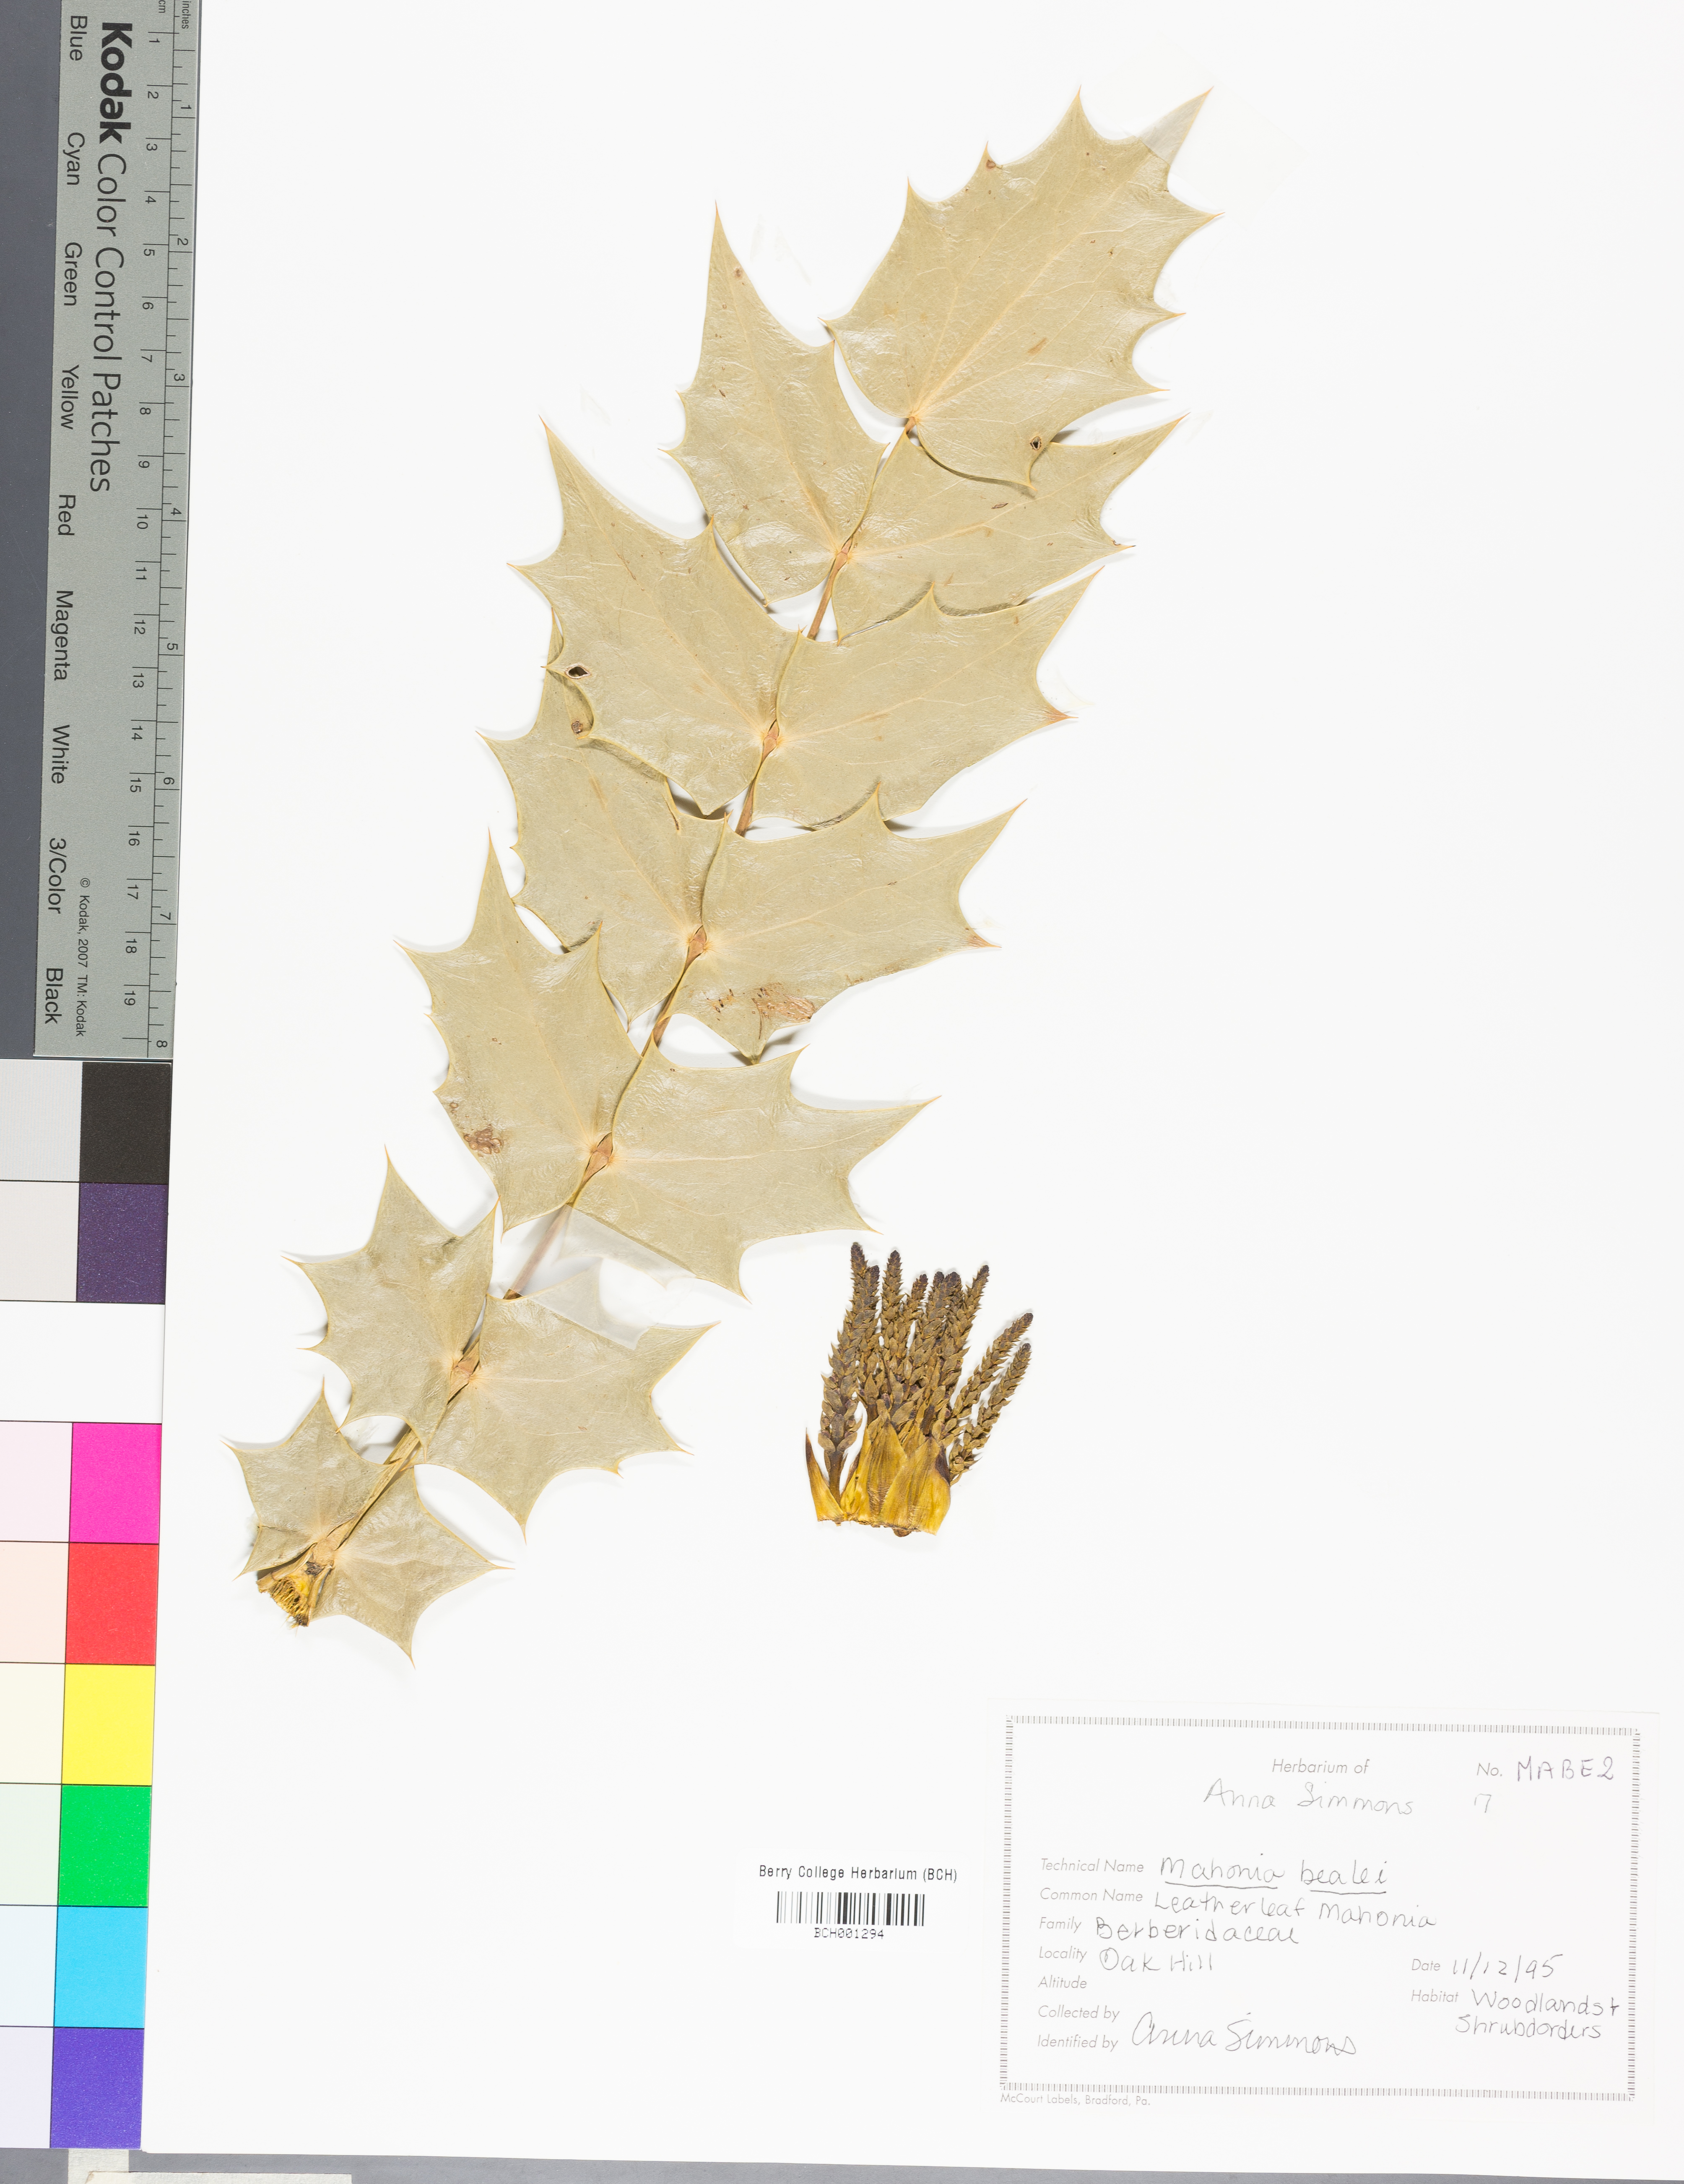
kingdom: Plantae
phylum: Tracheophyta
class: Magnoliopsida
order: Ranunculales
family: Berberidaceae
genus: Berberis
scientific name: Berberis darwinii
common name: Darwin's barberry
